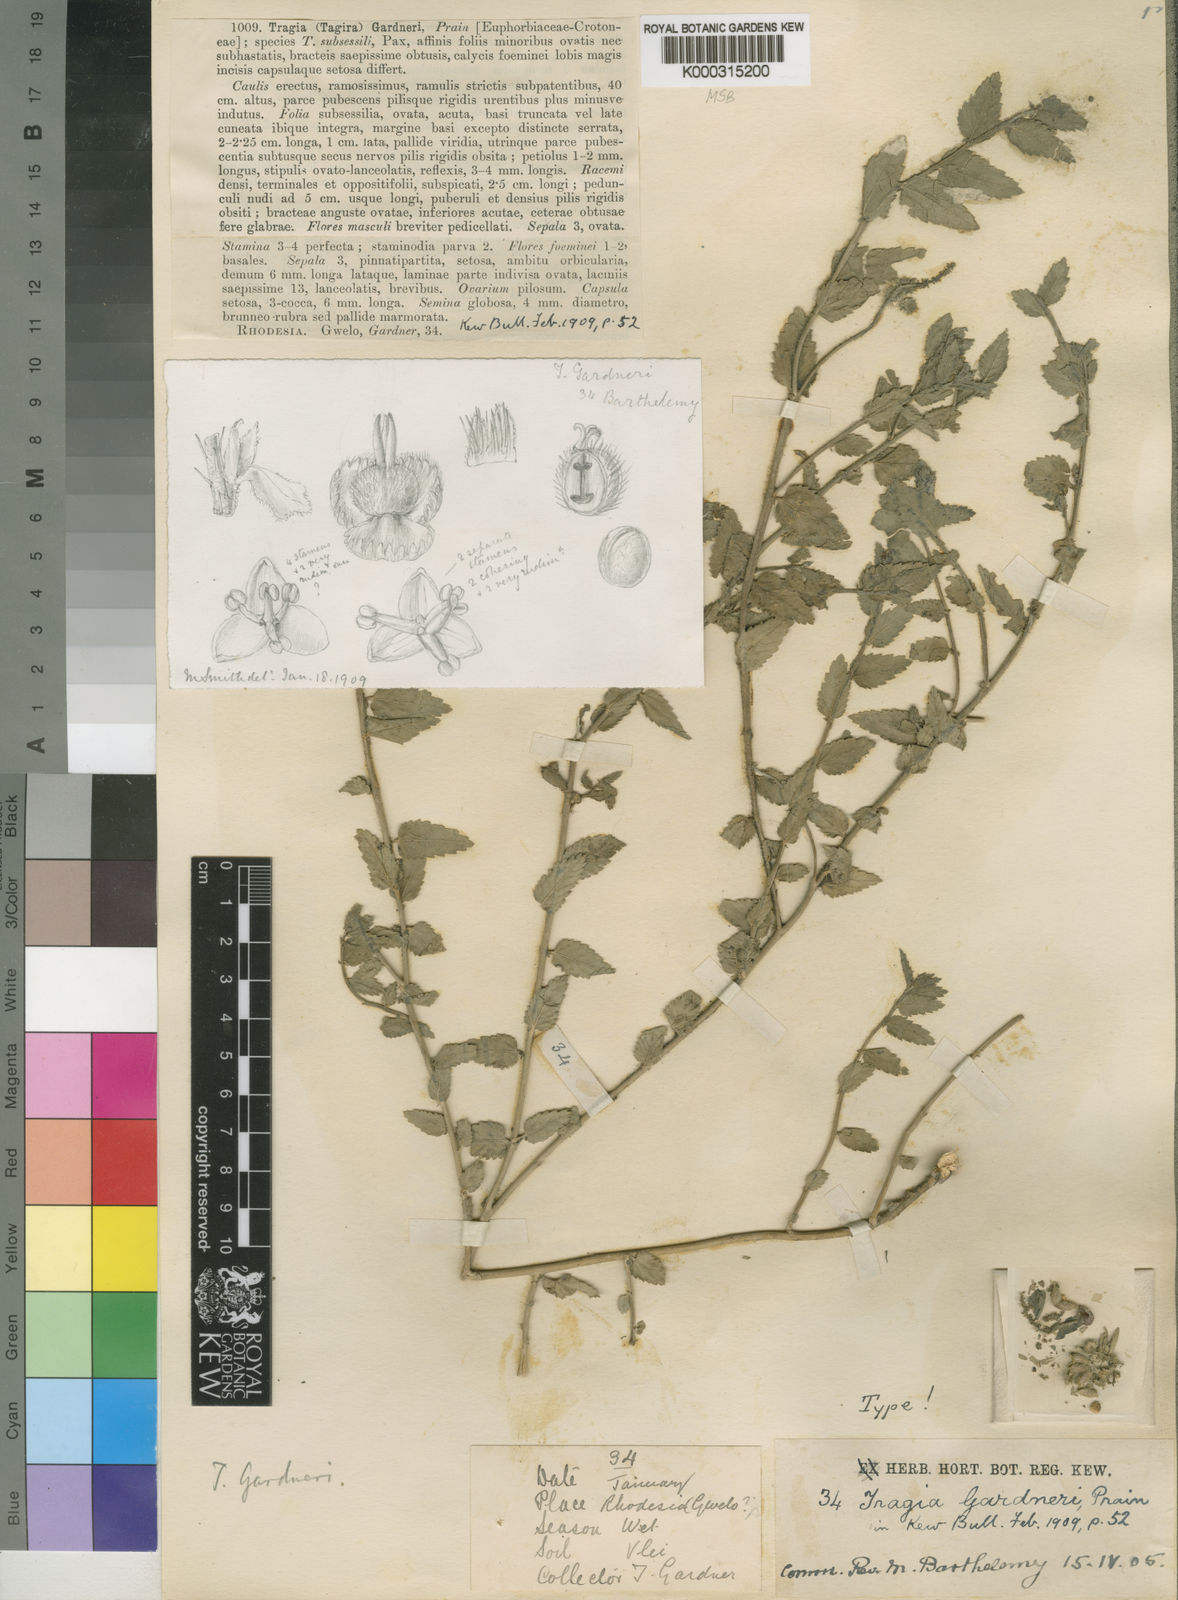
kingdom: Plantae
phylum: Tracheophyta
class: Magnoliopsida
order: Malpighiales
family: Euphorbiaceae
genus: Tragia
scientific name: Tragia gardneri
